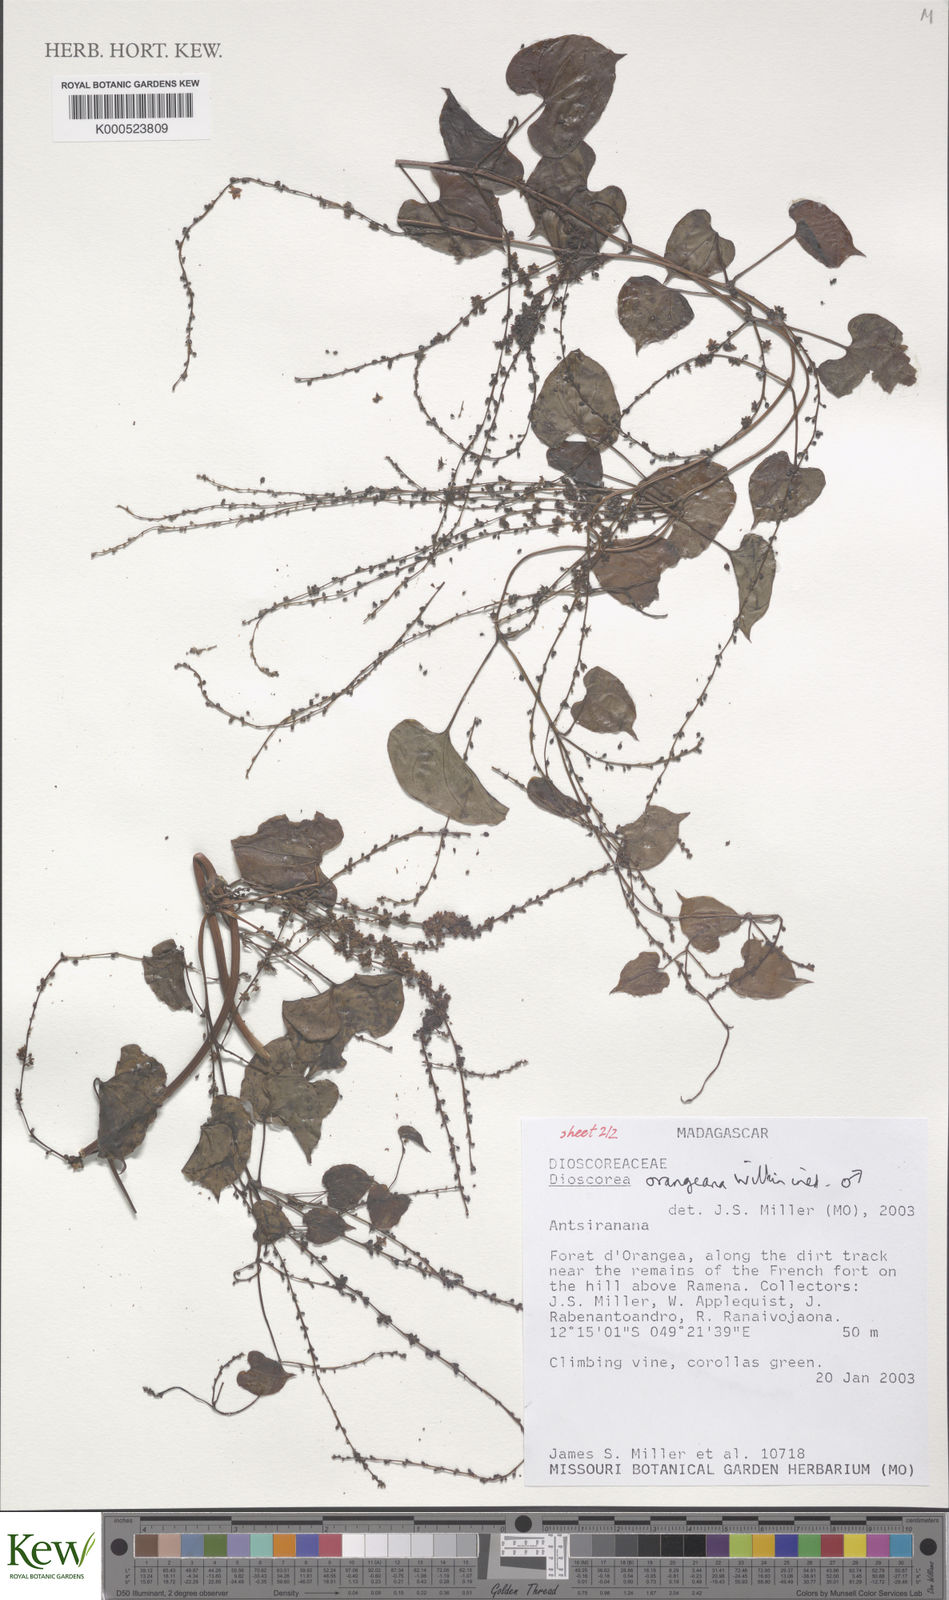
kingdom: Plantae
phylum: Tracheophyta
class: Liliopsida
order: Dioscoreales
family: Dioscoreaceae
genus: Dioscorea
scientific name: Dioscorea orangeana
